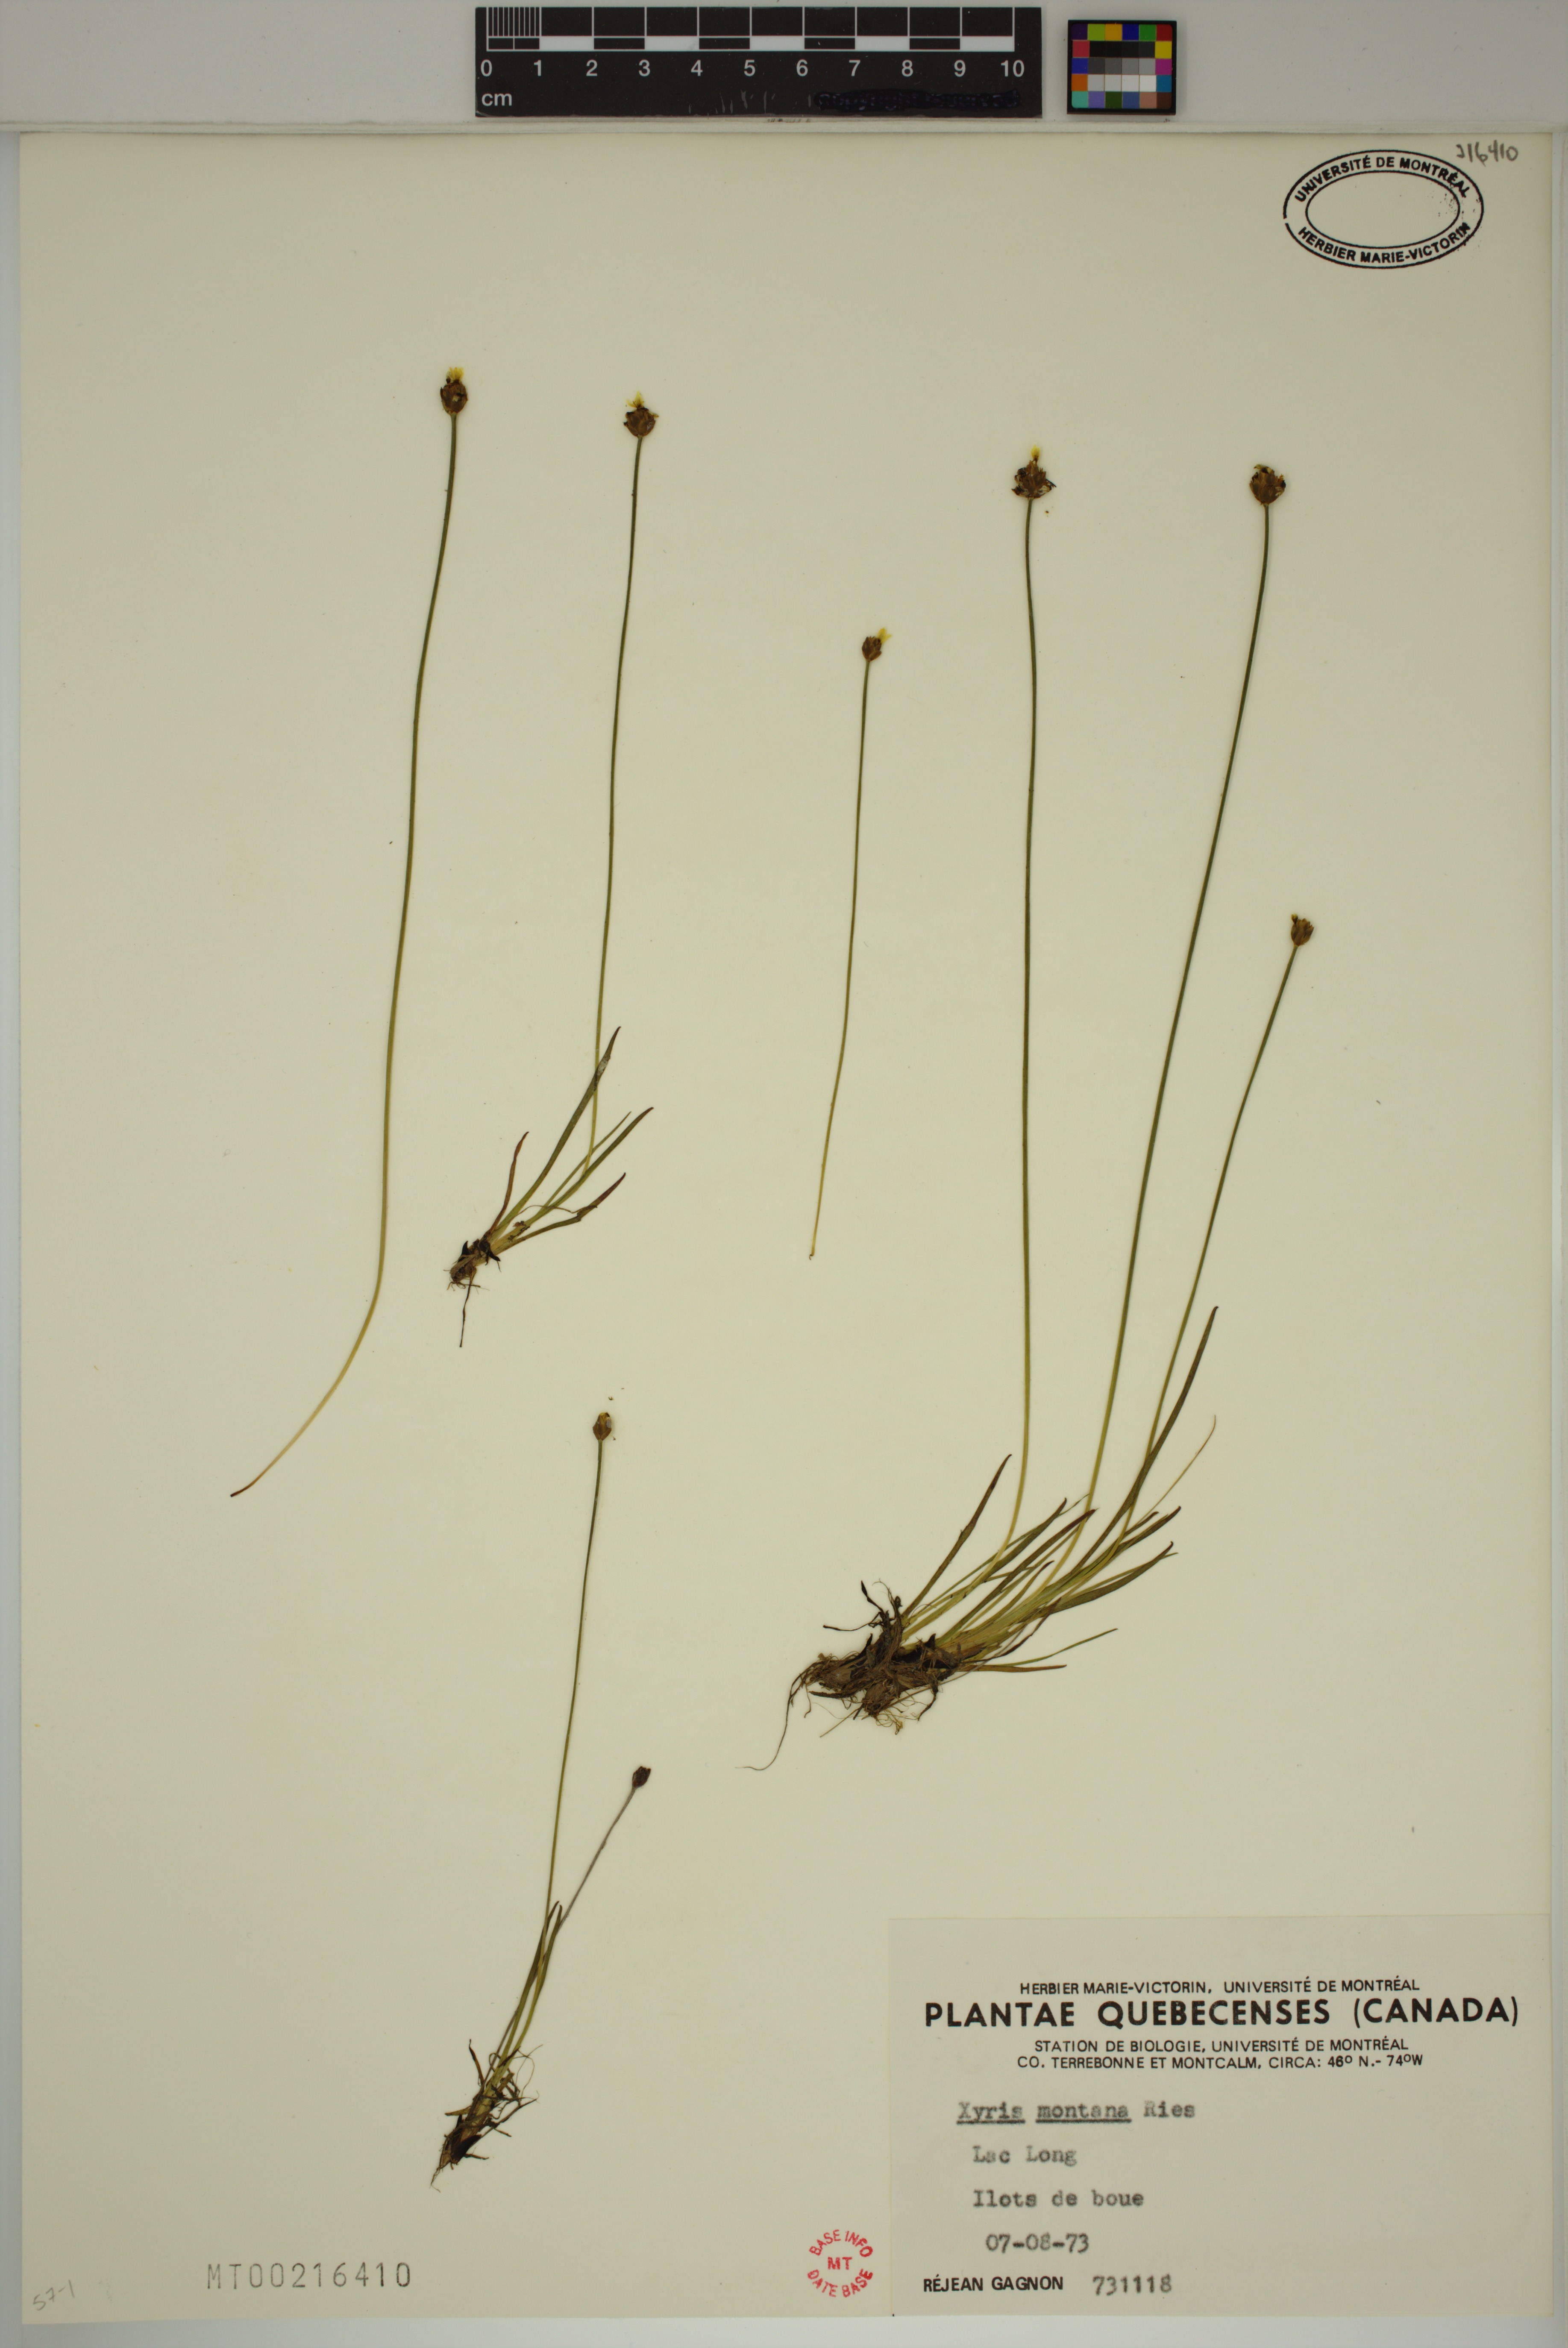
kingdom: Plantae
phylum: Tracheophyta
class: Liliopsida
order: Poales
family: Xyridaceae
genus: Xyris
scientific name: Xyris montana
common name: Northern yellow-eyed-grass
